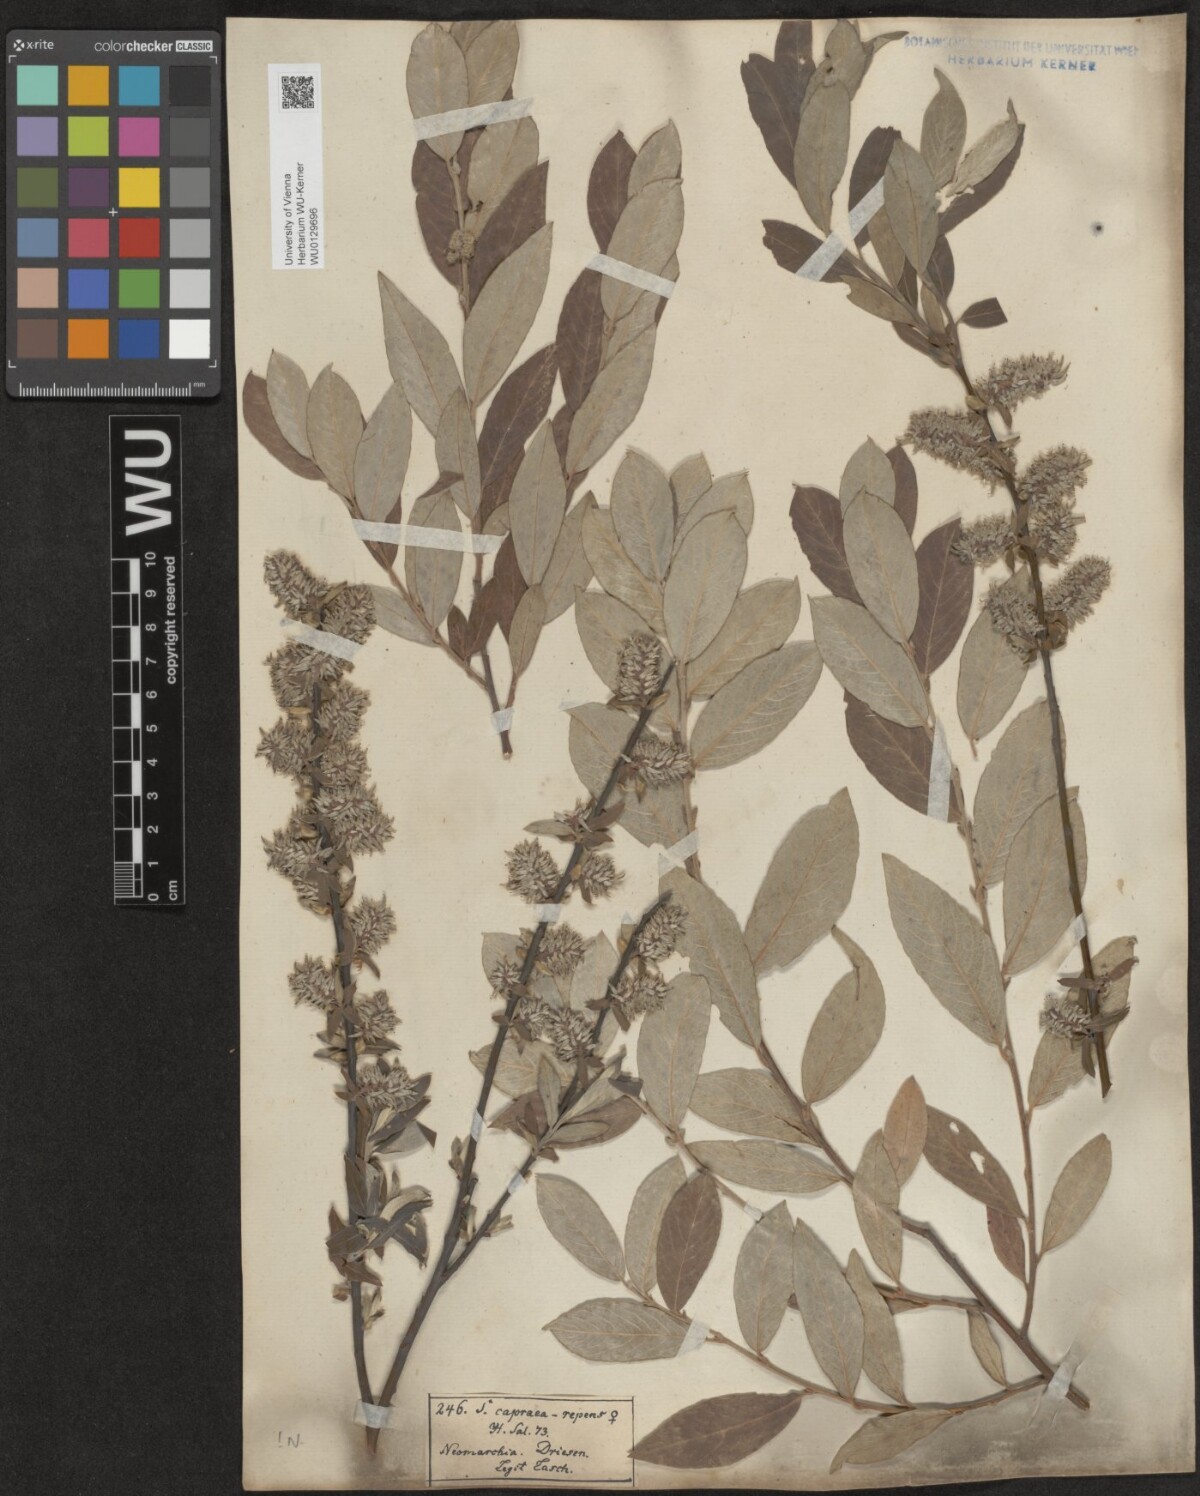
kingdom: Plantae
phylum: Tracheophyta
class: Magnoliopsida
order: Malpighiales
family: Salicaceae
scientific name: Salicaceae
